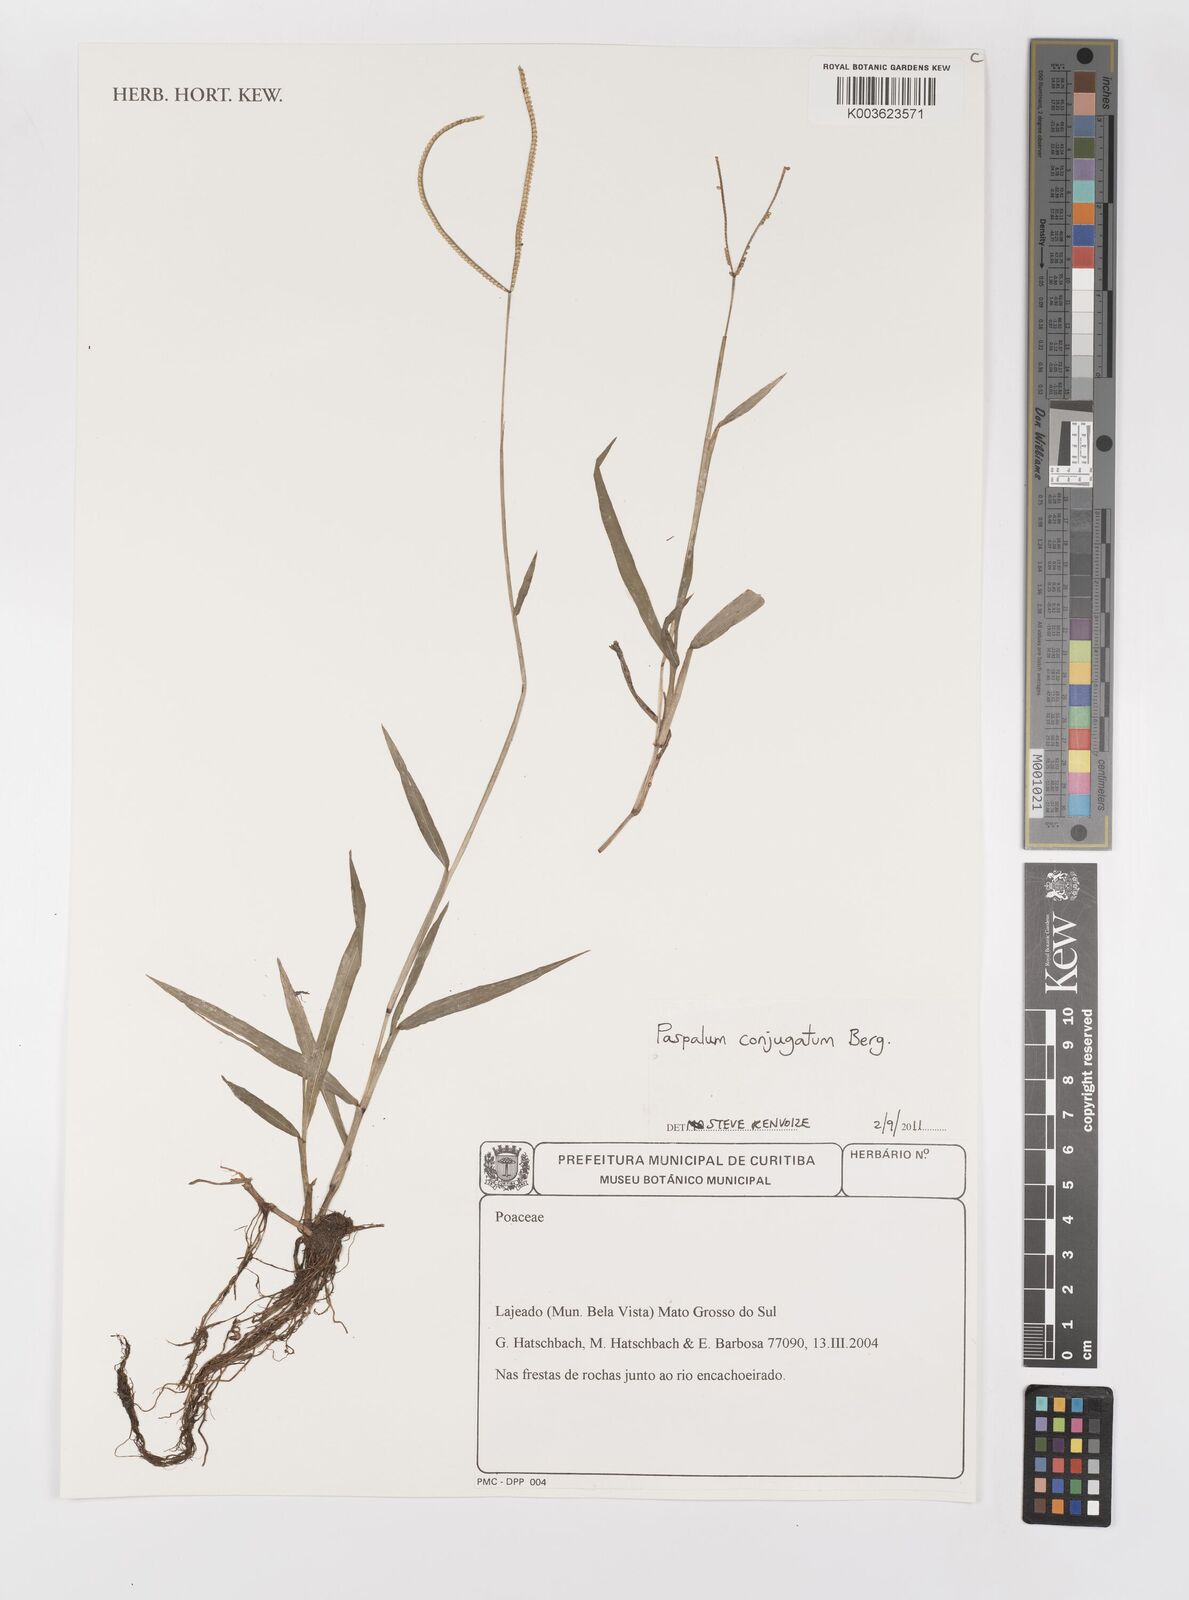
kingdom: Plantae
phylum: Tracheophyta
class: Liliopsida
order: Poales
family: Poaceae
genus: Paspalum
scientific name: Paspalum conjugatum
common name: Hilograss
